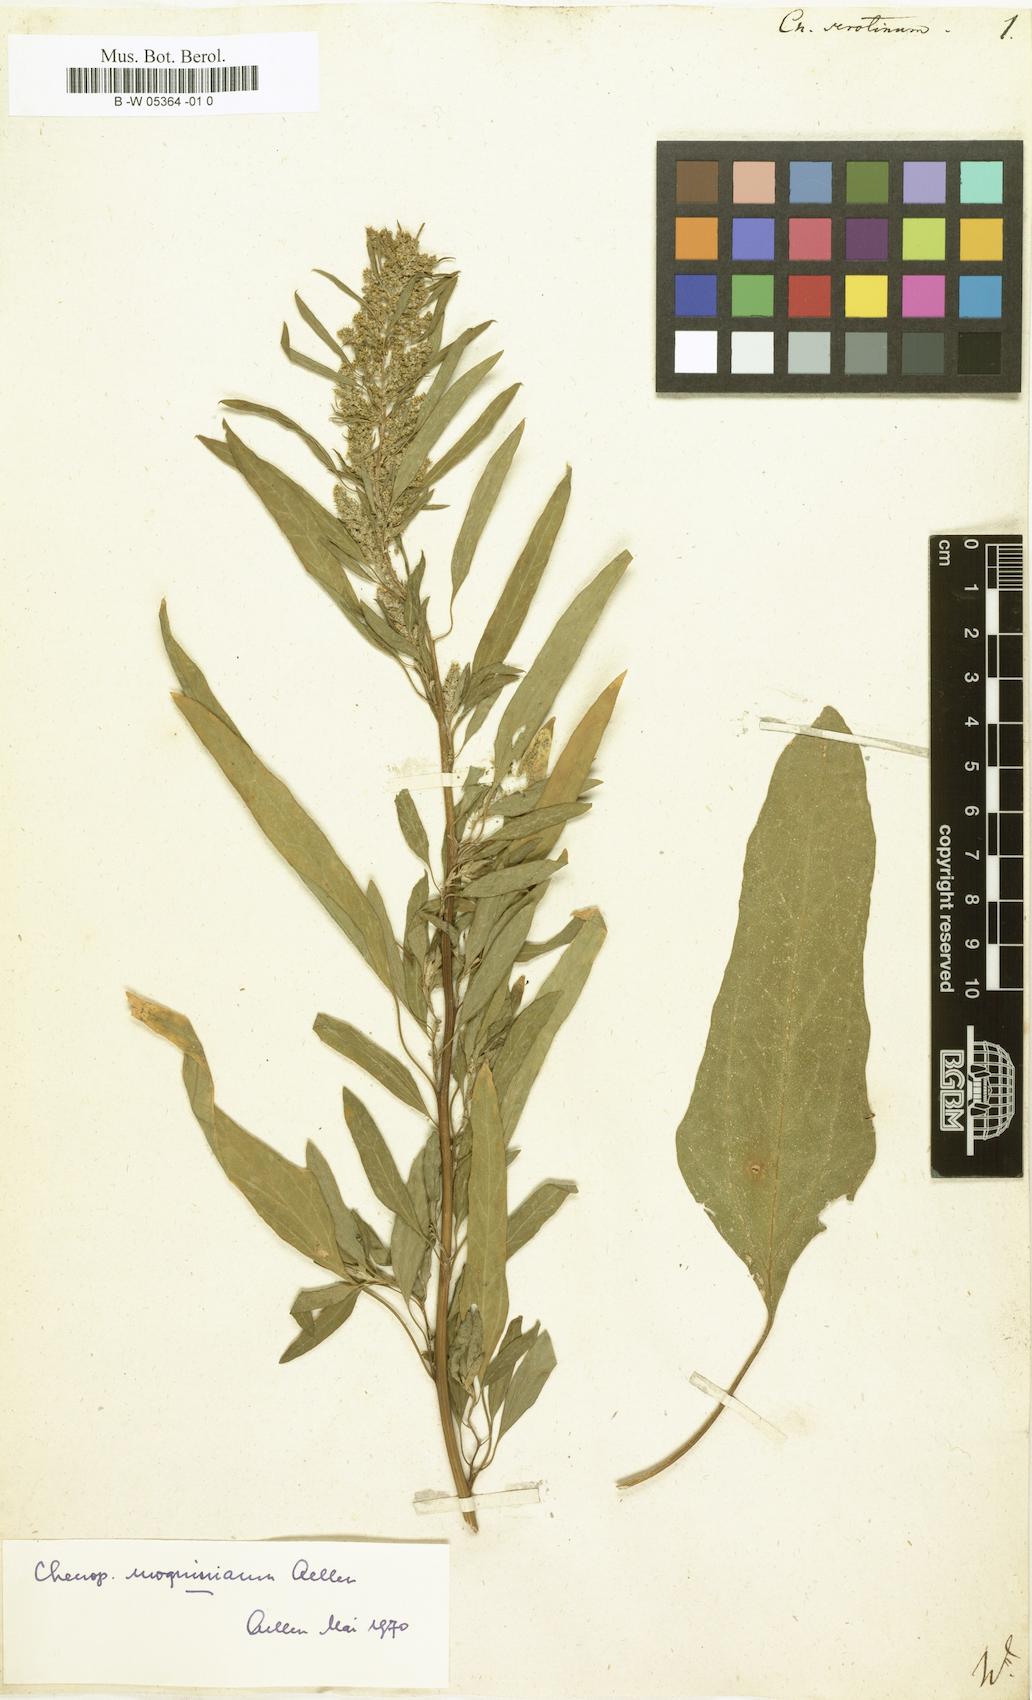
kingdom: Plantae
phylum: Tracheophyta
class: Magnoliopsida
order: Caryophyllales
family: Amaranthaceae
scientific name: Amaranthaceae
